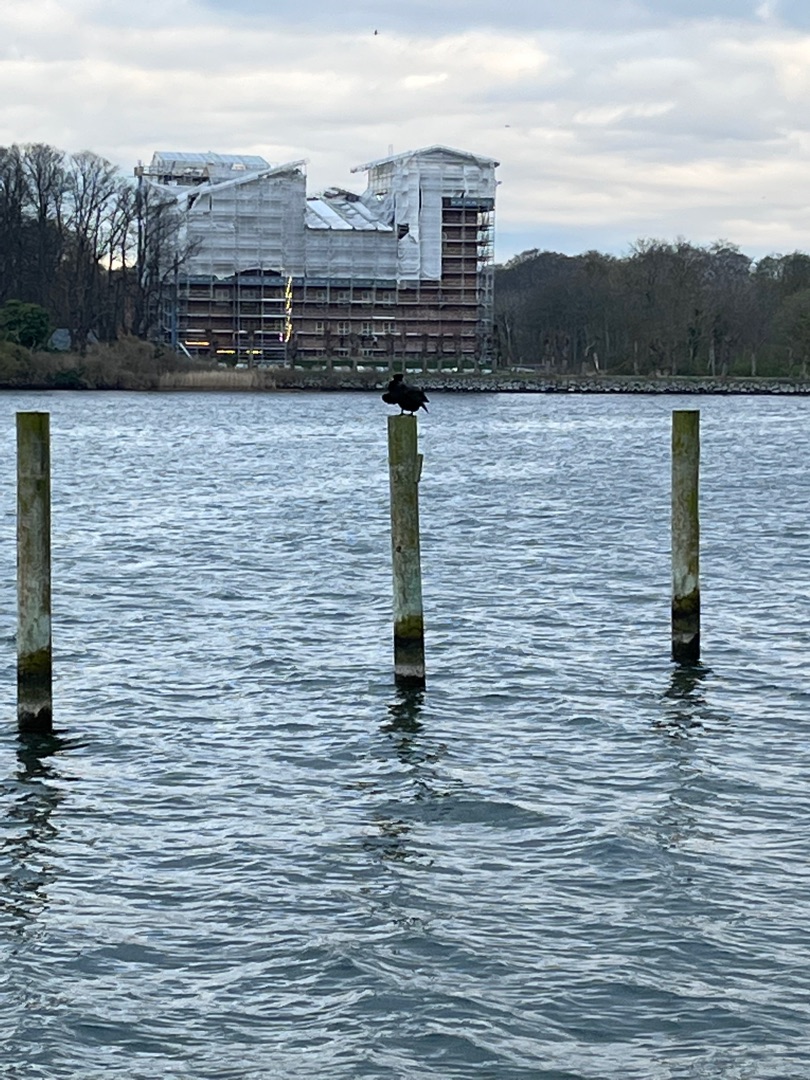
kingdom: Animalia
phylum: Chordata
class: Aves
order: Suliformes
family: Phalacrocoracidae
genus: Phalacrocorax
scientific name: Phalacrocorax carbo
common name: Skarv
